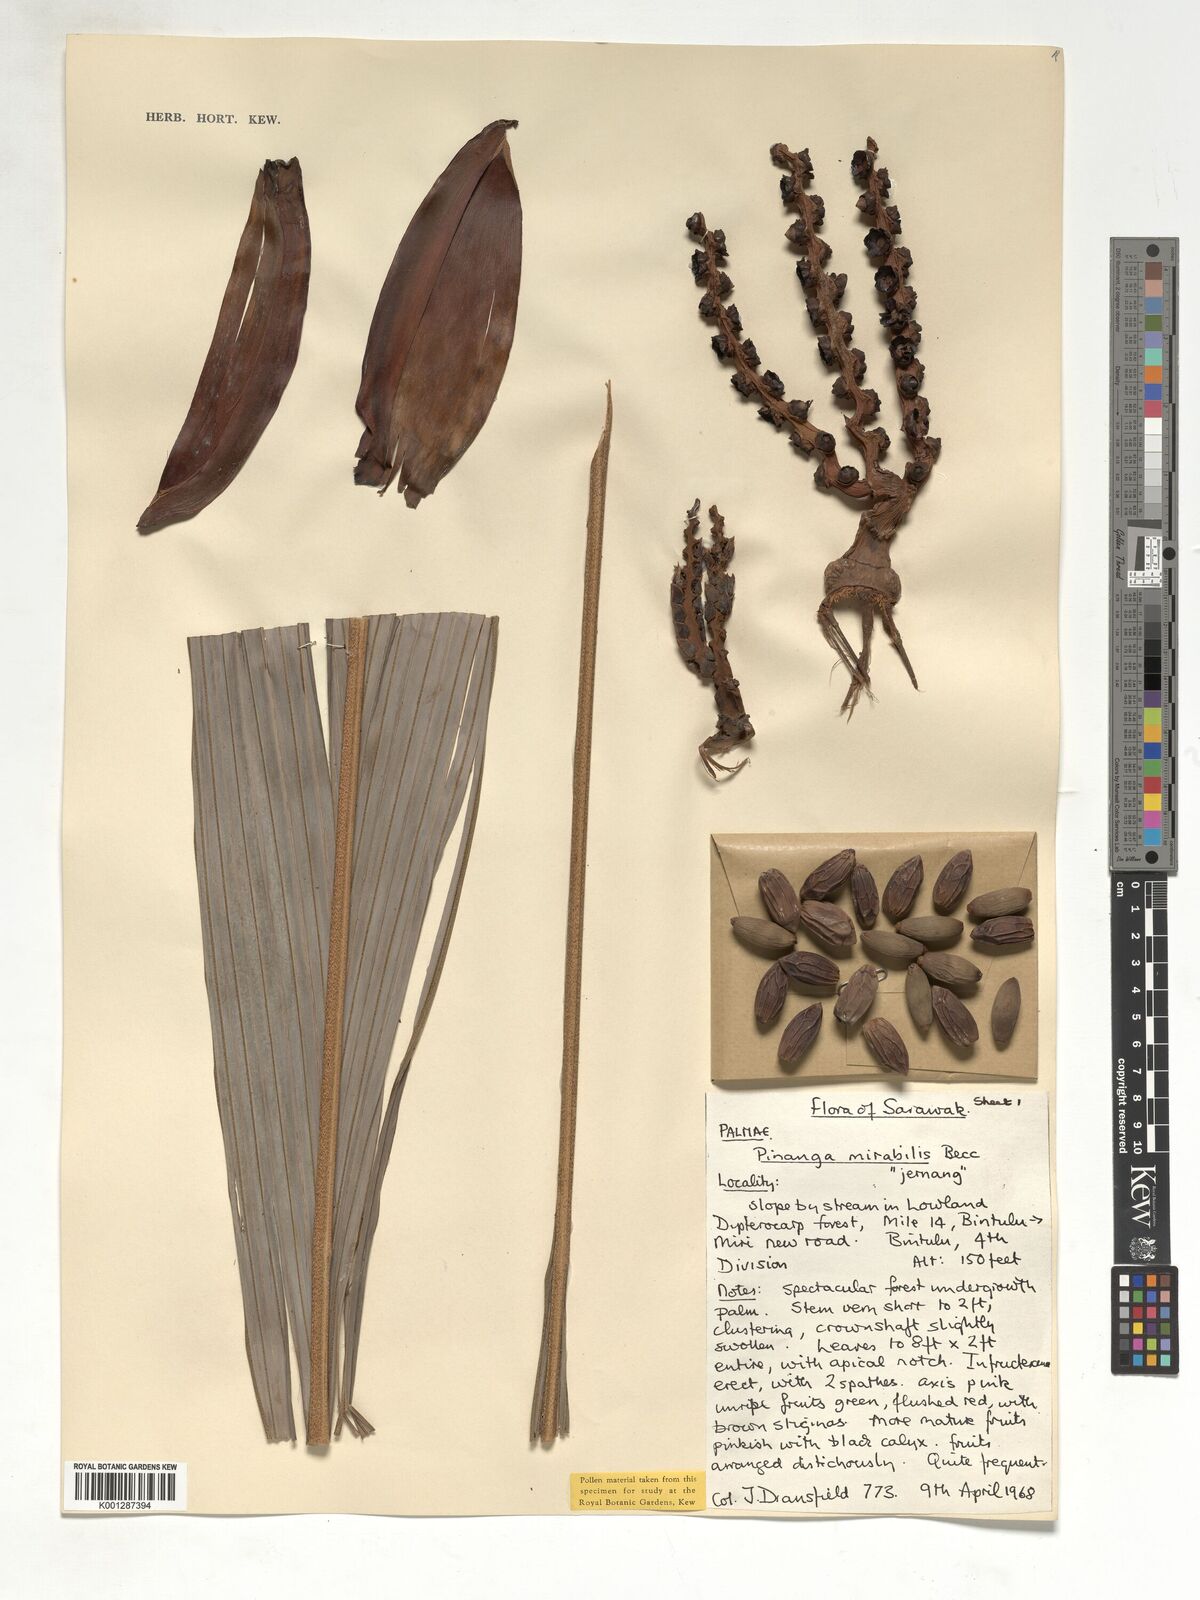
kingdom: Plantae
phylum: Tracheophyta
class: Liliopsida
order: Arecales
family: Arecaceae
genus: Pinanga
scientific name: Pinanga mirabilis
